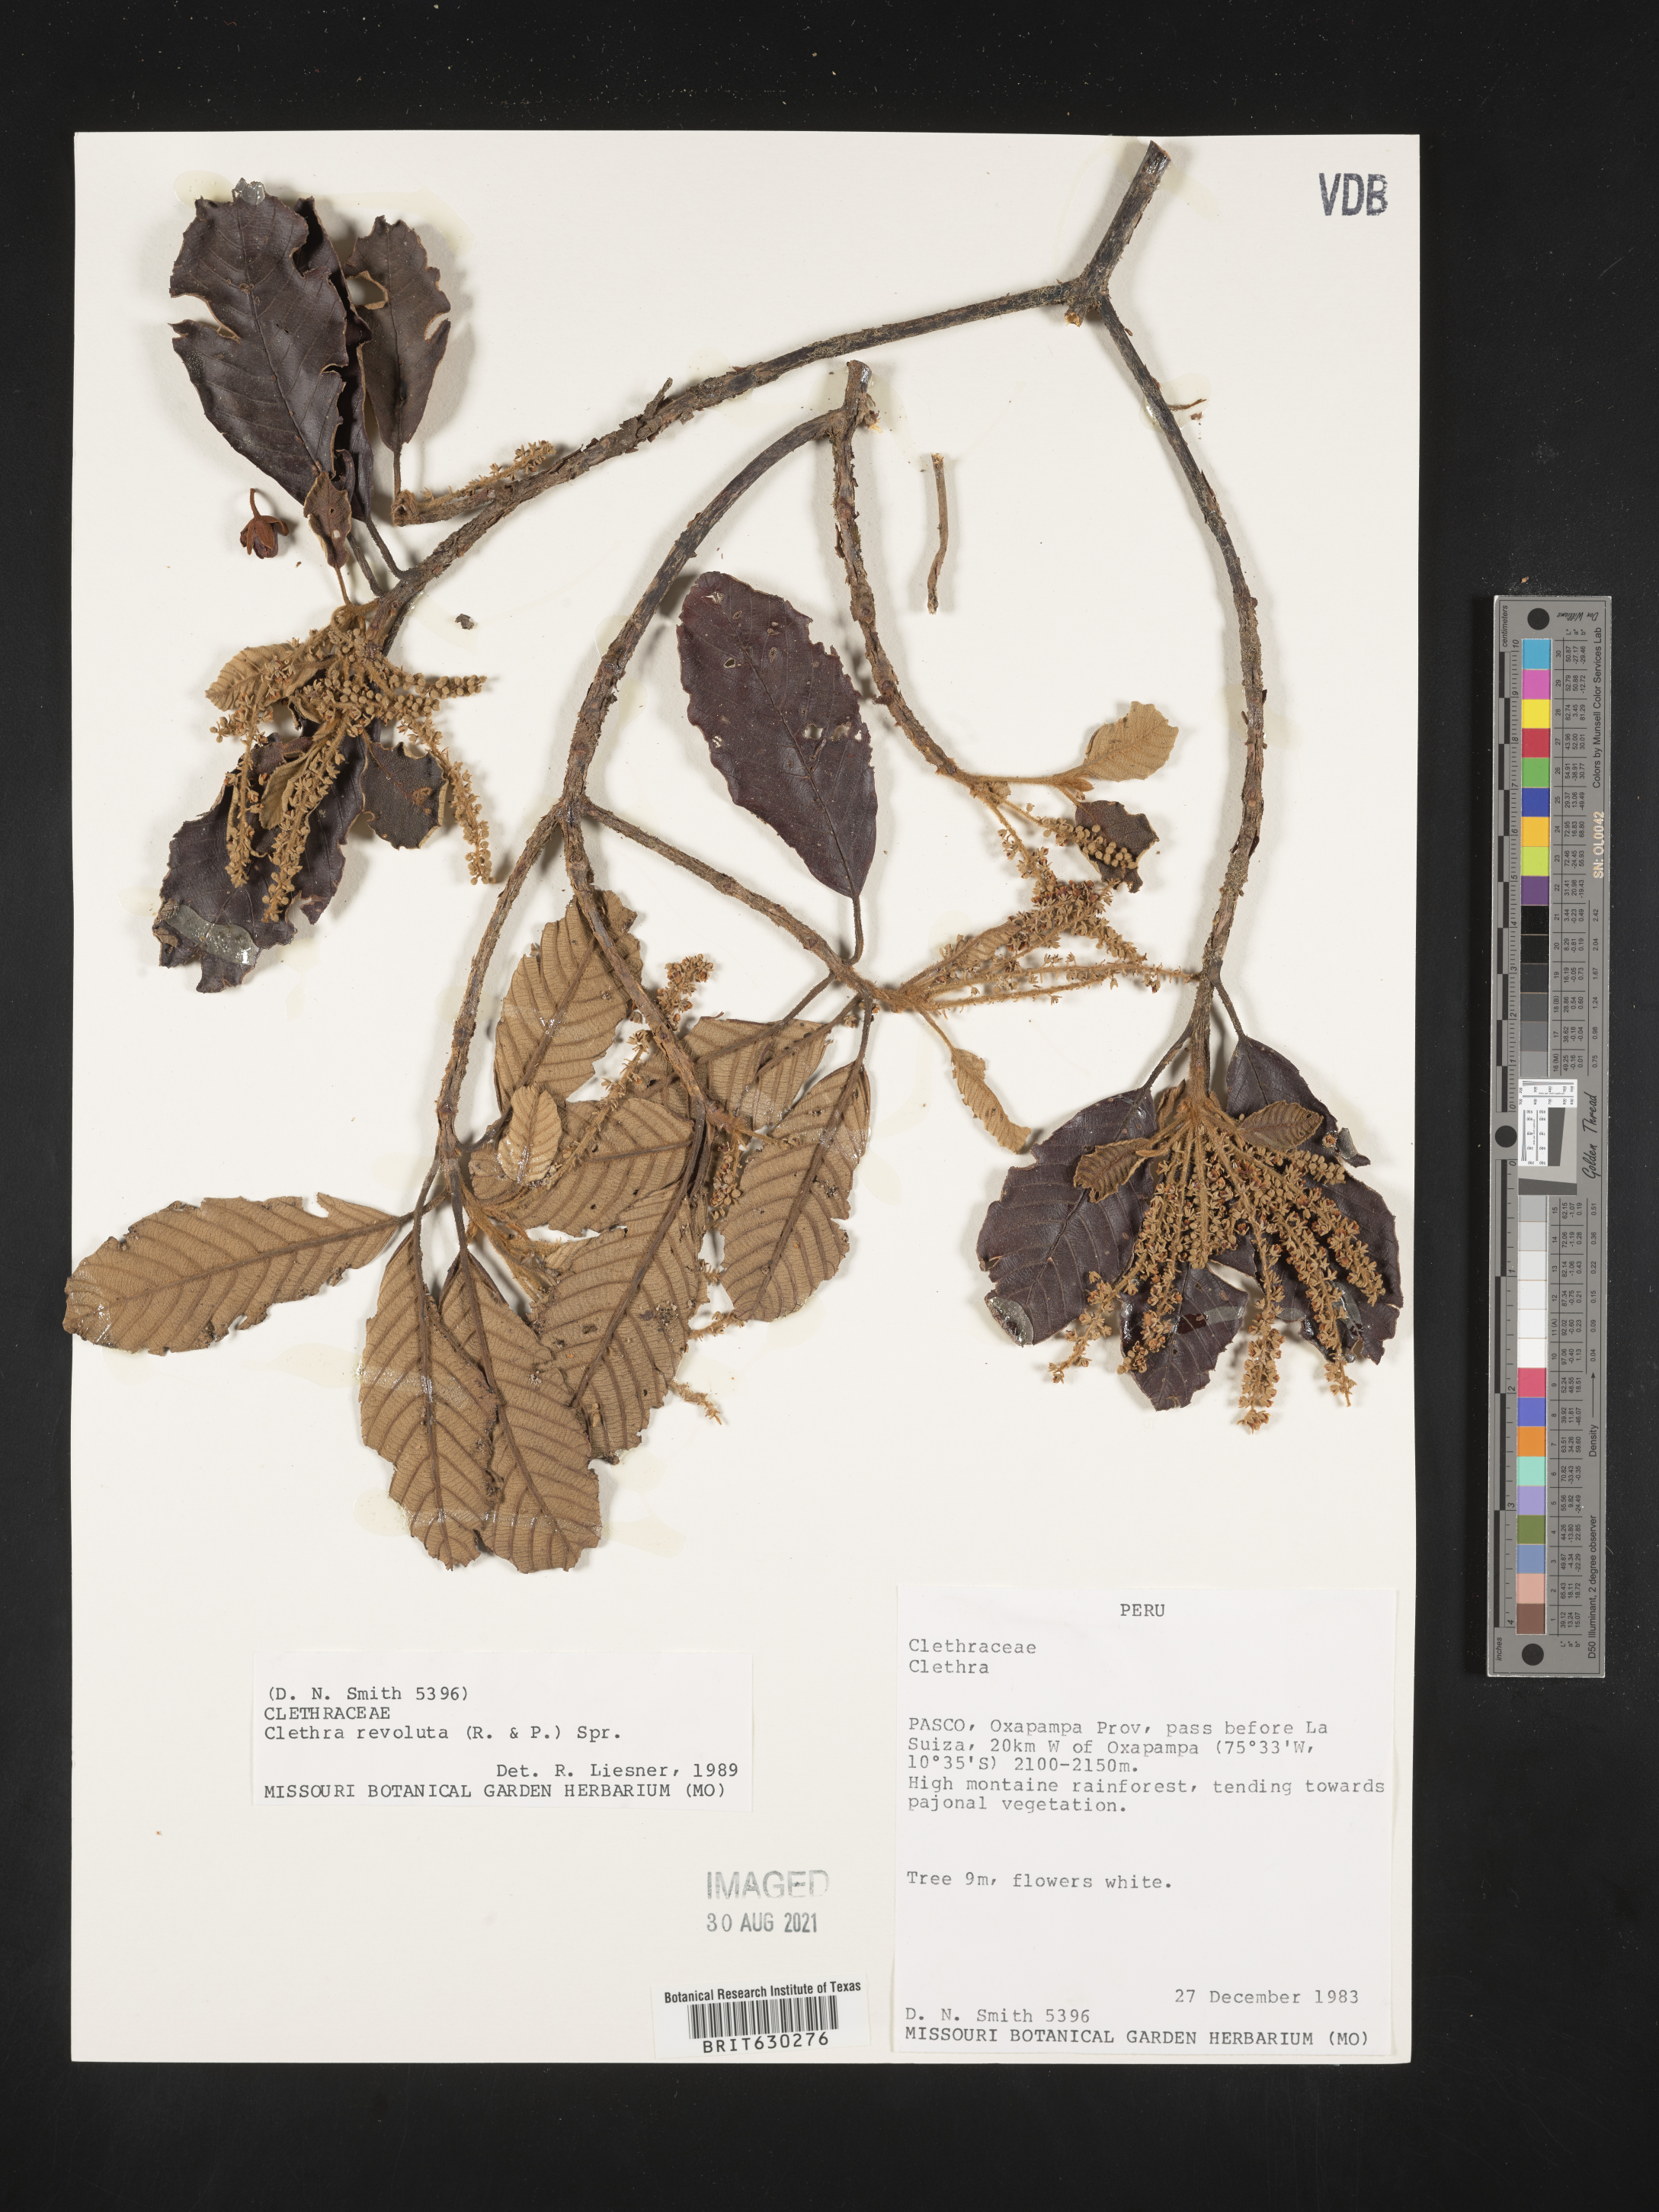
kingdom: Plantae
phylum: Tracheophyta
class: Magnoliopsida
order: Ericales
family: Clethraceae
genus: Clethra
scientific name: Clethra revoluta
